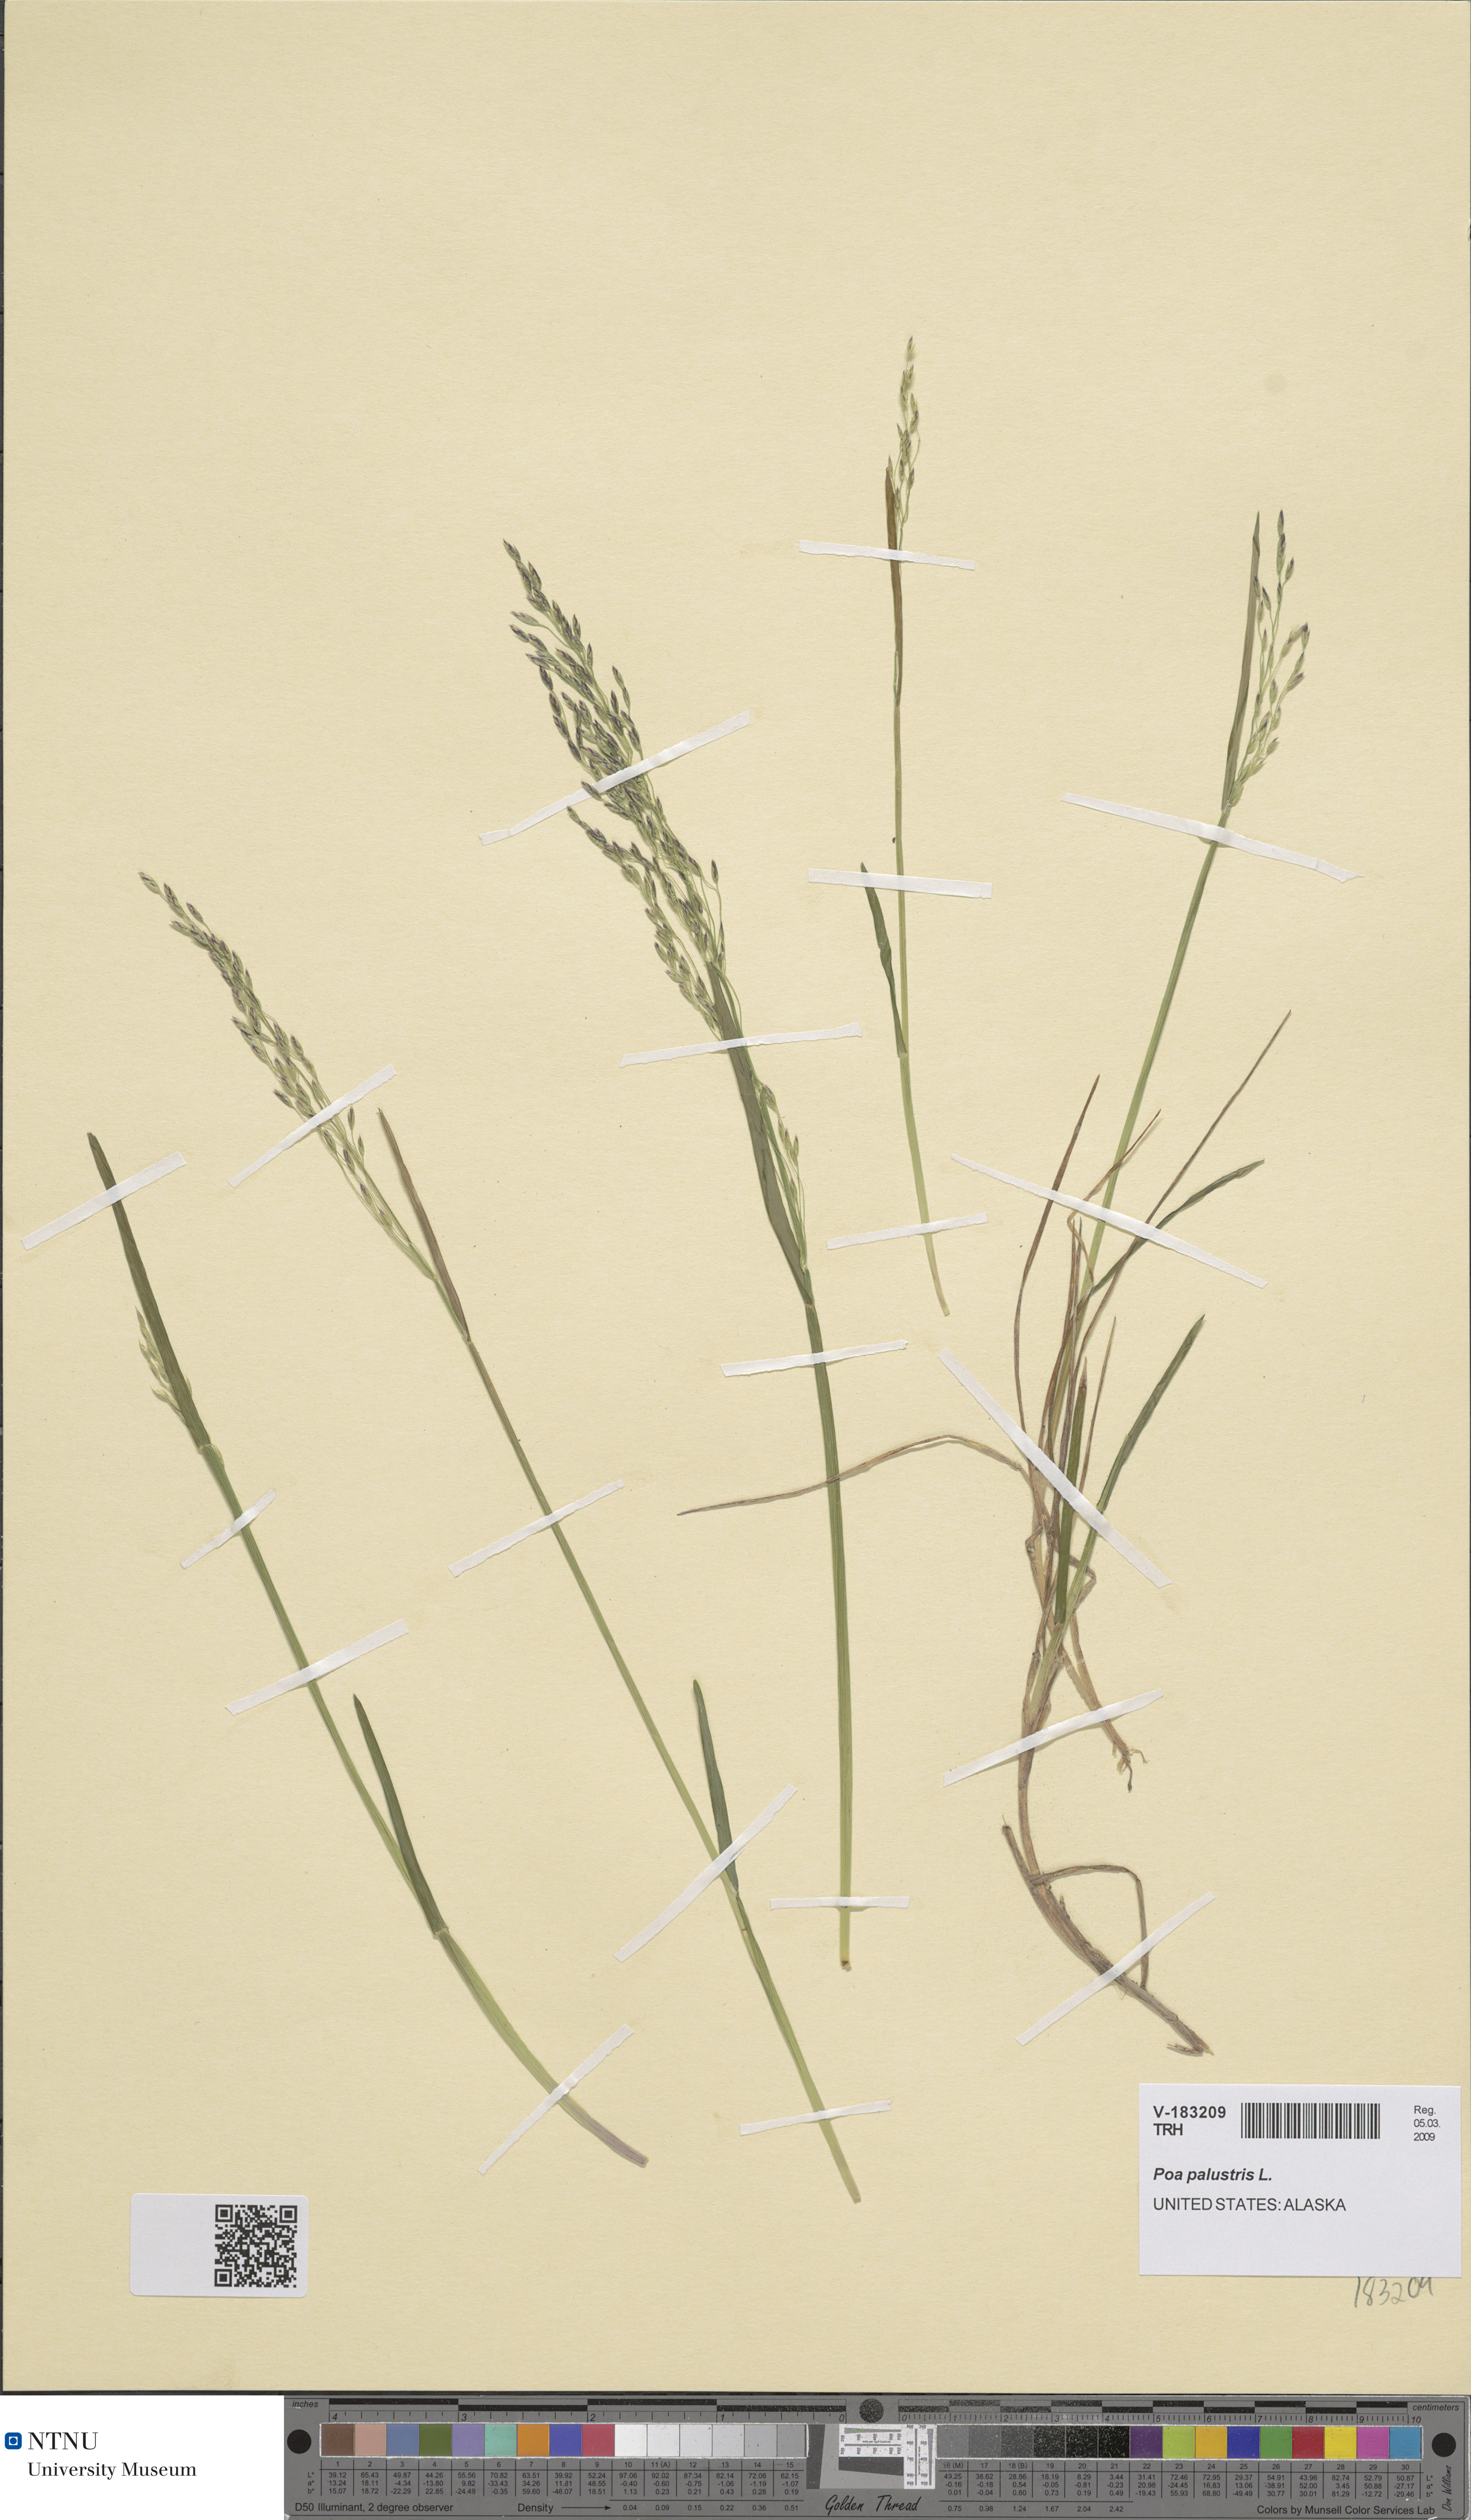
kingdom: Plantae
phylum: Tracheophyta
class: Liliopsida
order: Poales
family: Poaceae
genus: Poa
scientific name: Poa palustris
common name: Swamp meadow-grass
